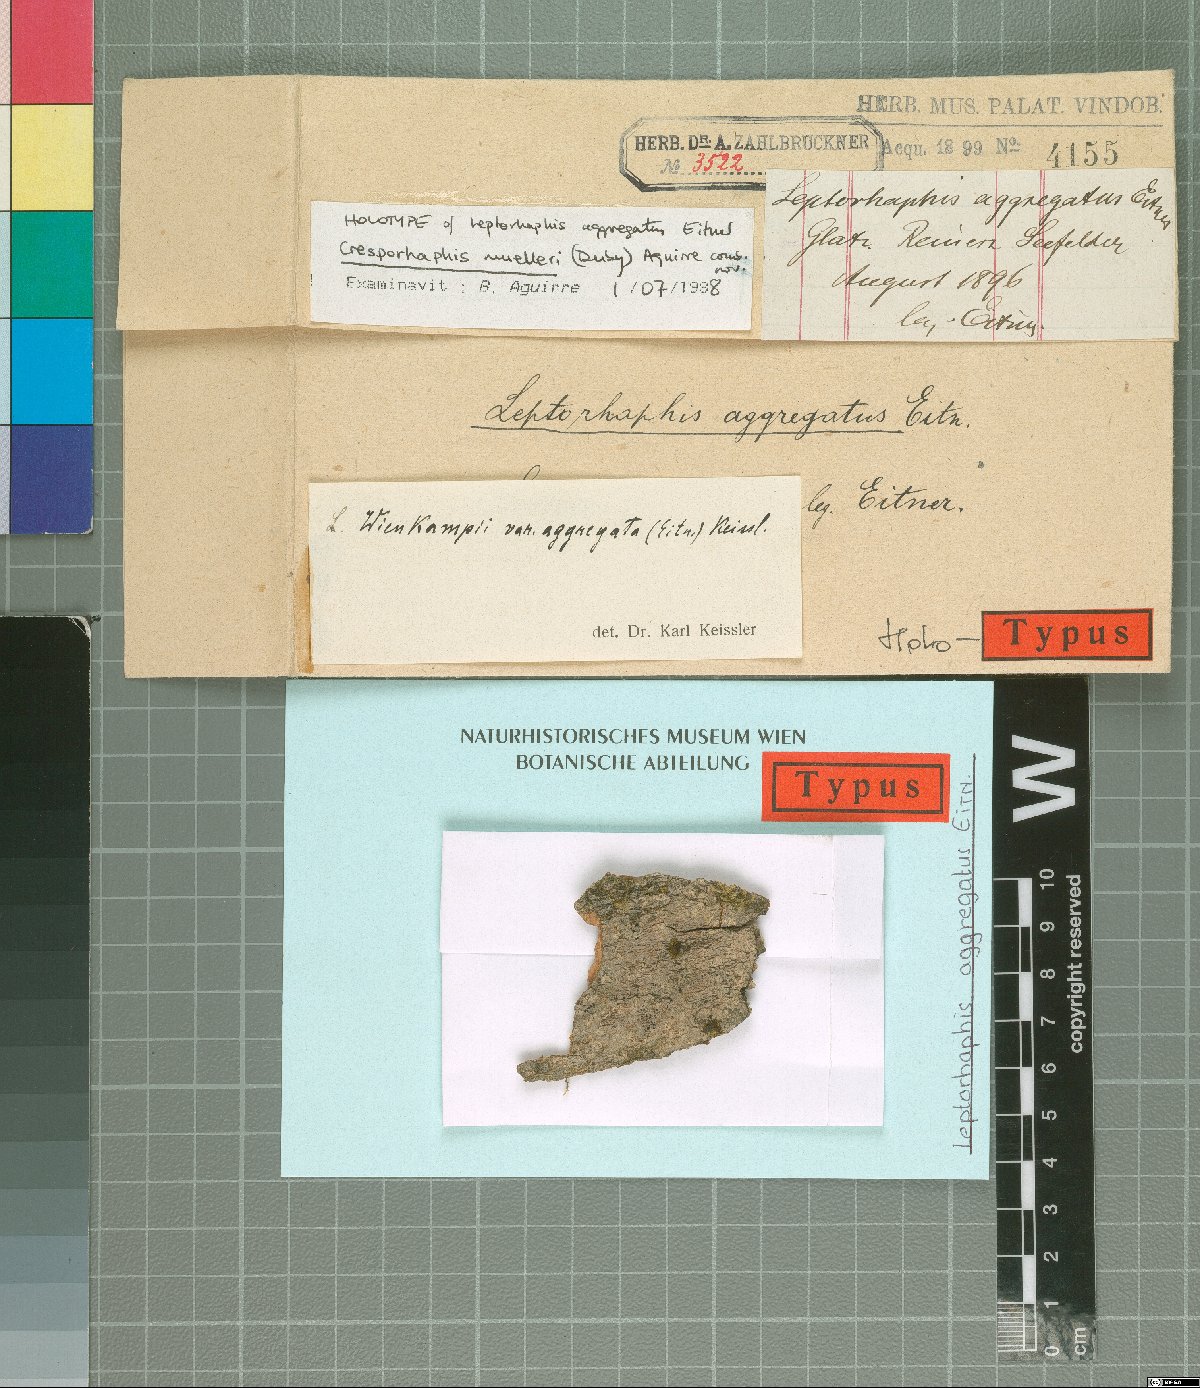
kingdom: Fungi
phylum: Ascomycota
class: Dothideomycetes
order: Pleosporales
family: Naetrocymbaceae
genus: Leptorhaphis
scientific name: Leptorhaphis
